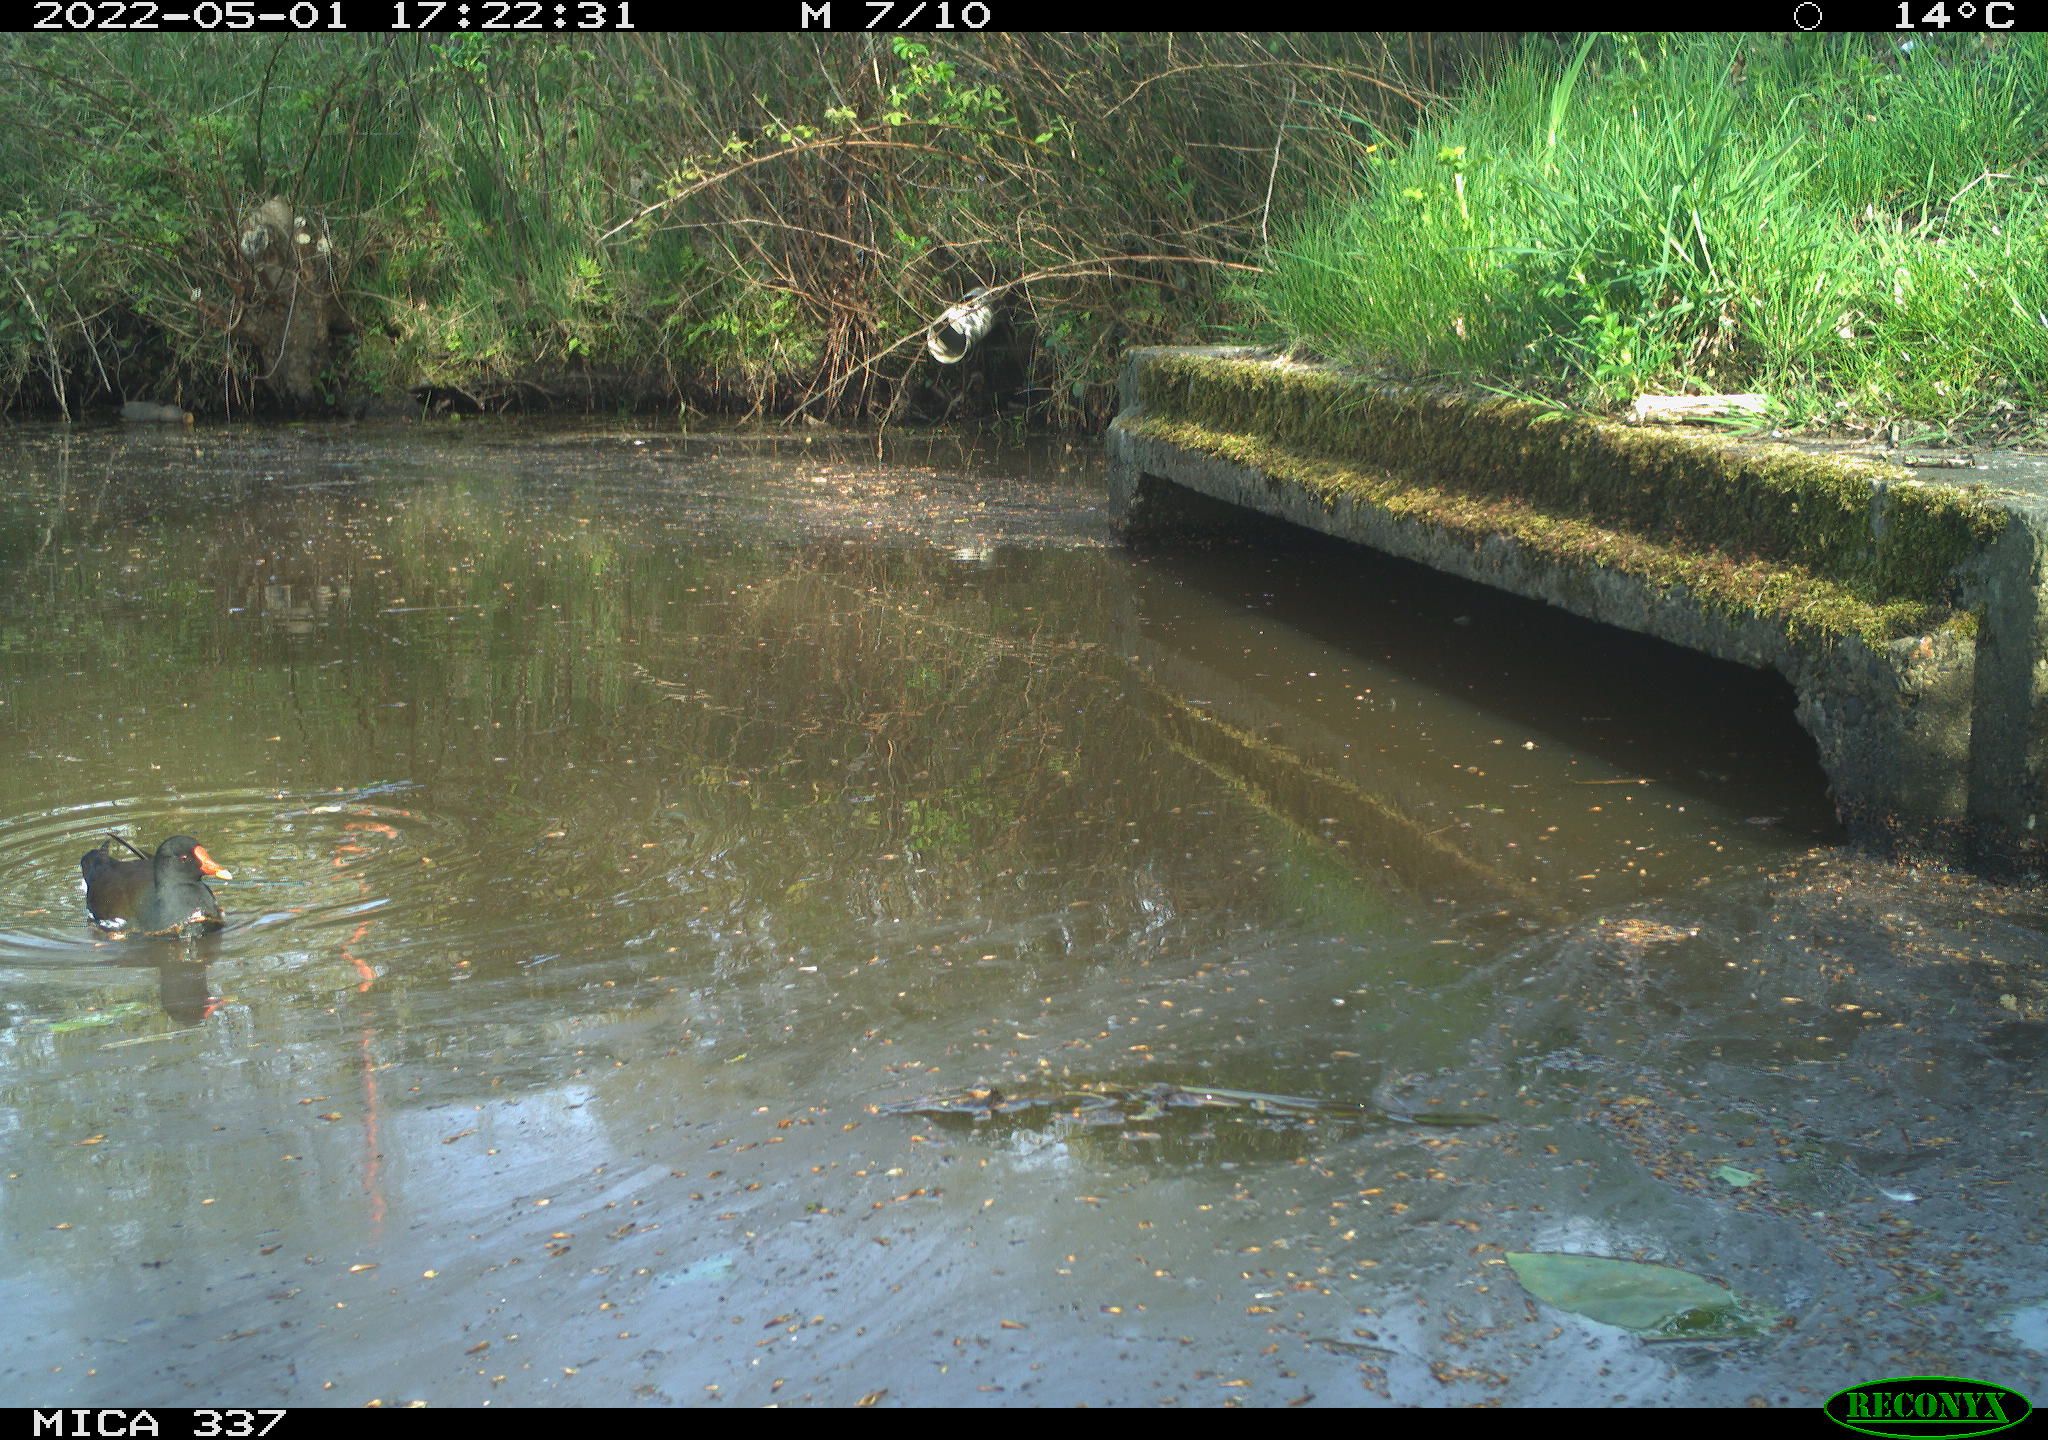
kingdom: Animalia
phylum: Chordata
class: Aves
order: Gruiformes
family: Rallidae
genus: Gallinula
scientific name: Gallinula chloropus
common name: Common moorhen
